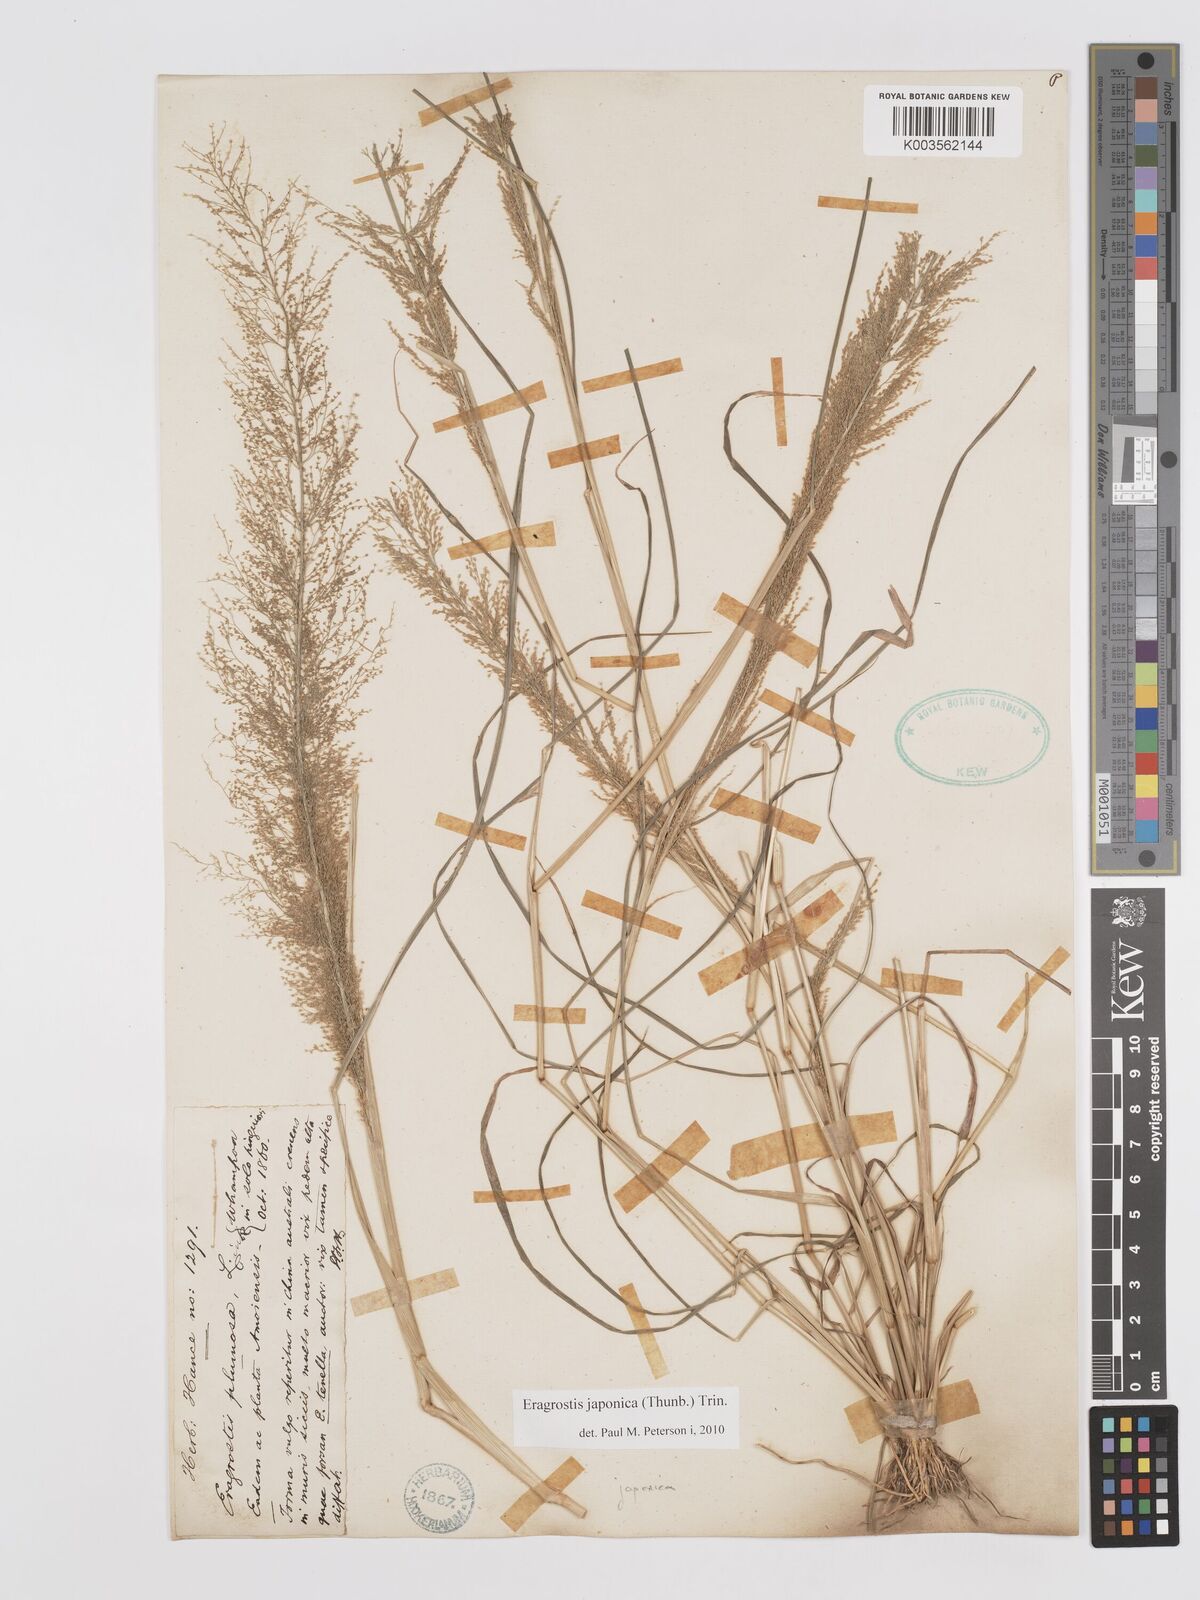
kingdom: Plantae
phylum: Tracheophyta
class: Liliopsida
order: Poales
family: Poaceae
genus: Eragrostis
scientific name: Eragrostis japonica
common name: Pond lovegrass
